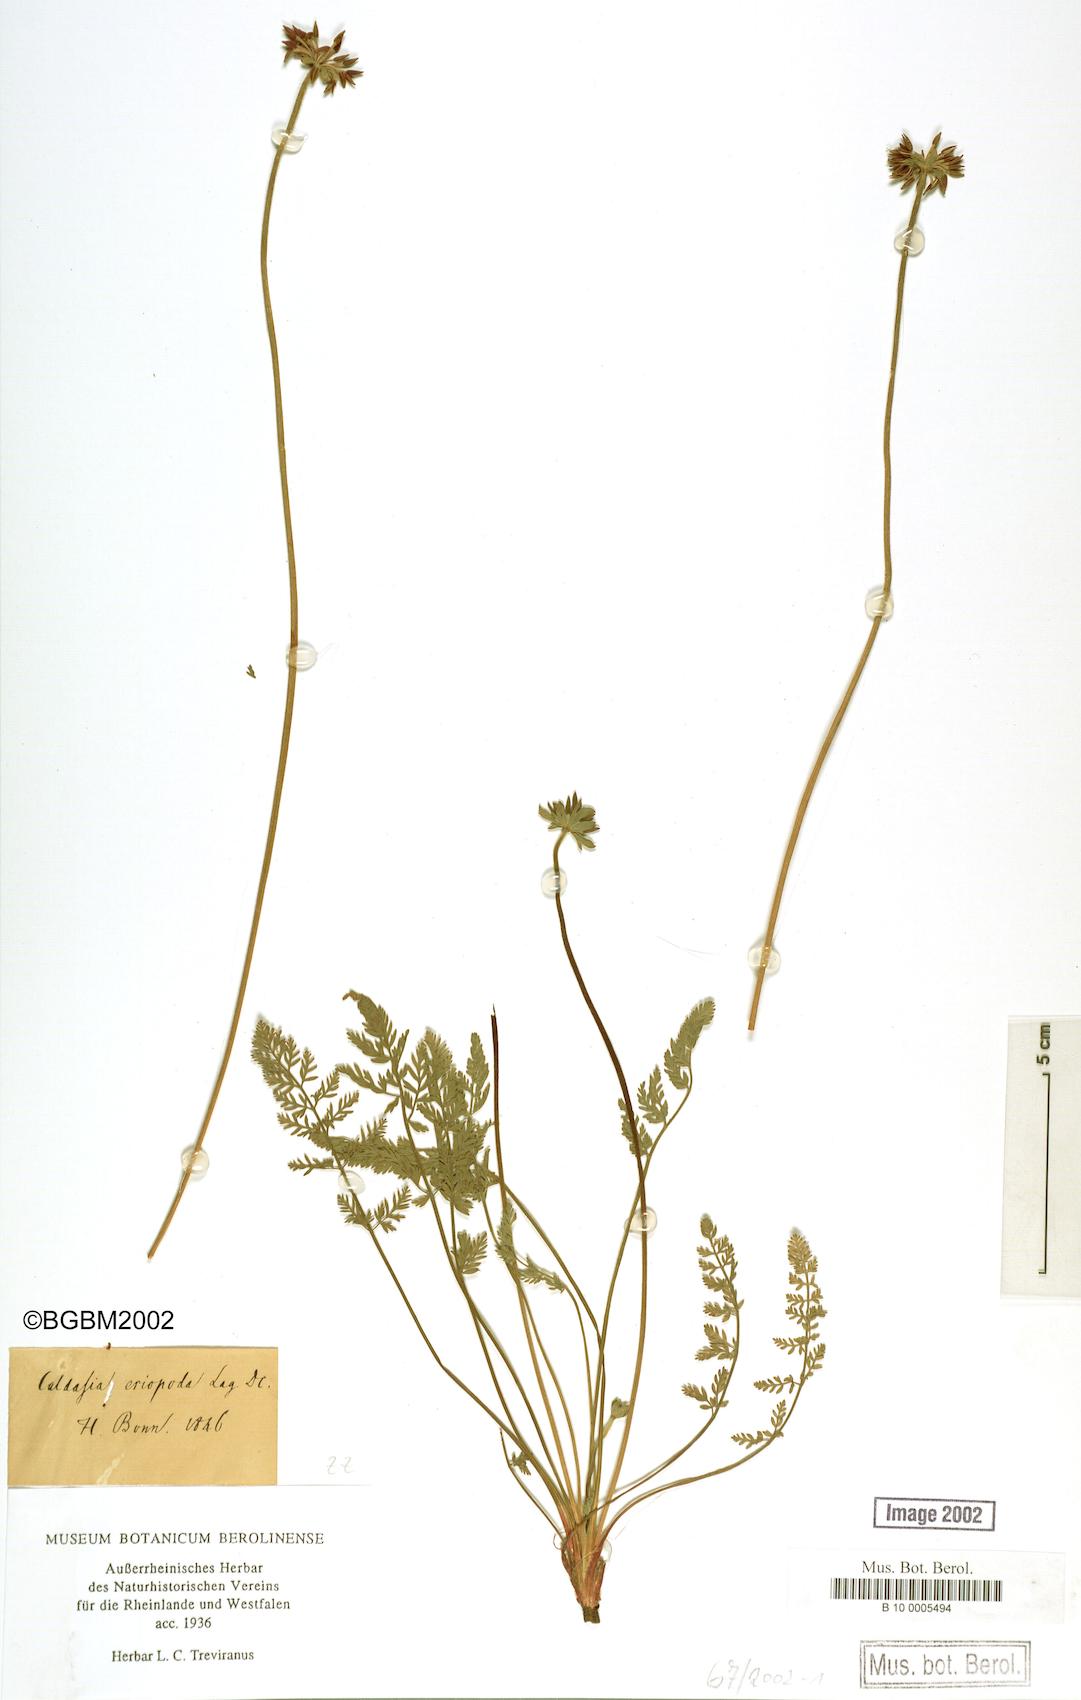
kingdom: Plantae
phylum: Tracheophyta
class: Magnoliopsida
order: Apiales
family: Apiaceae
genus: Chaerophyllum
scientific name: Chaerophyllum eriopodum
